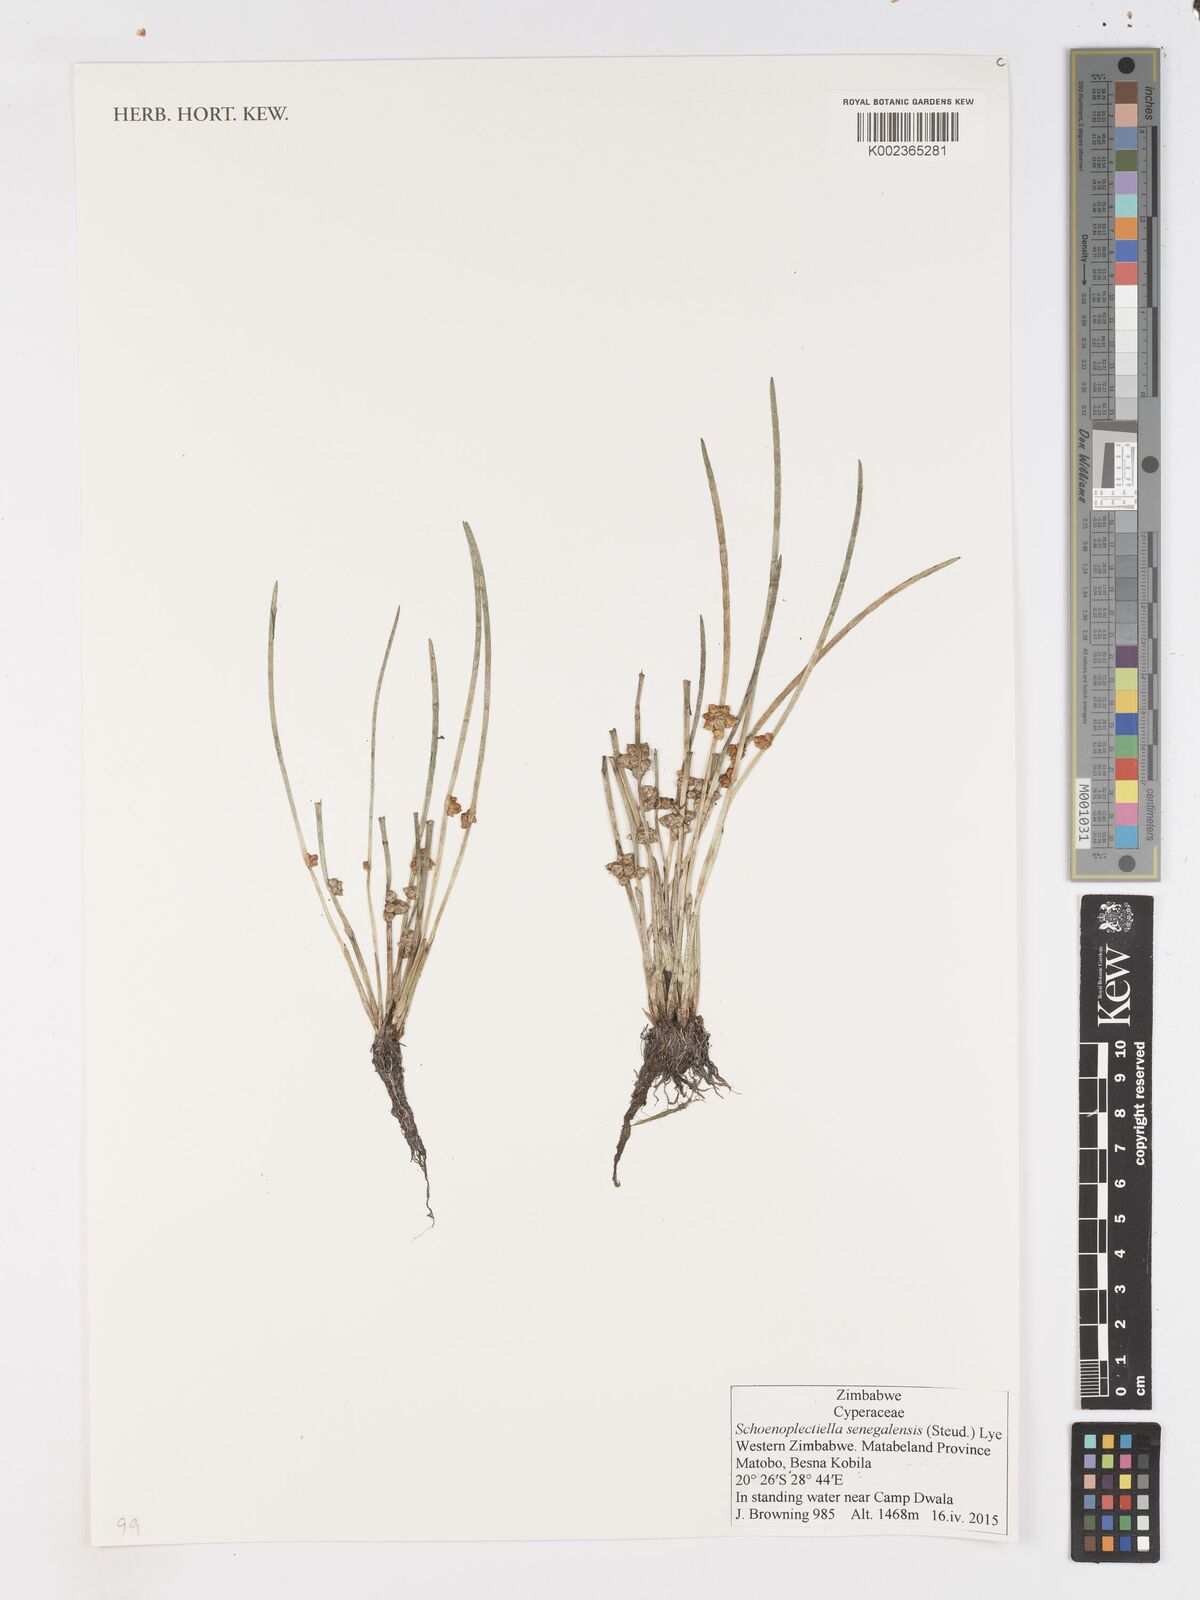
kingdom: Plantae
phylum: Tracheophyta
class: Liliopsida
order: Poales
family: Cyperaceae
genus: Schoenoplectiella
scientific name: Schoenoplectiella senegalensis
